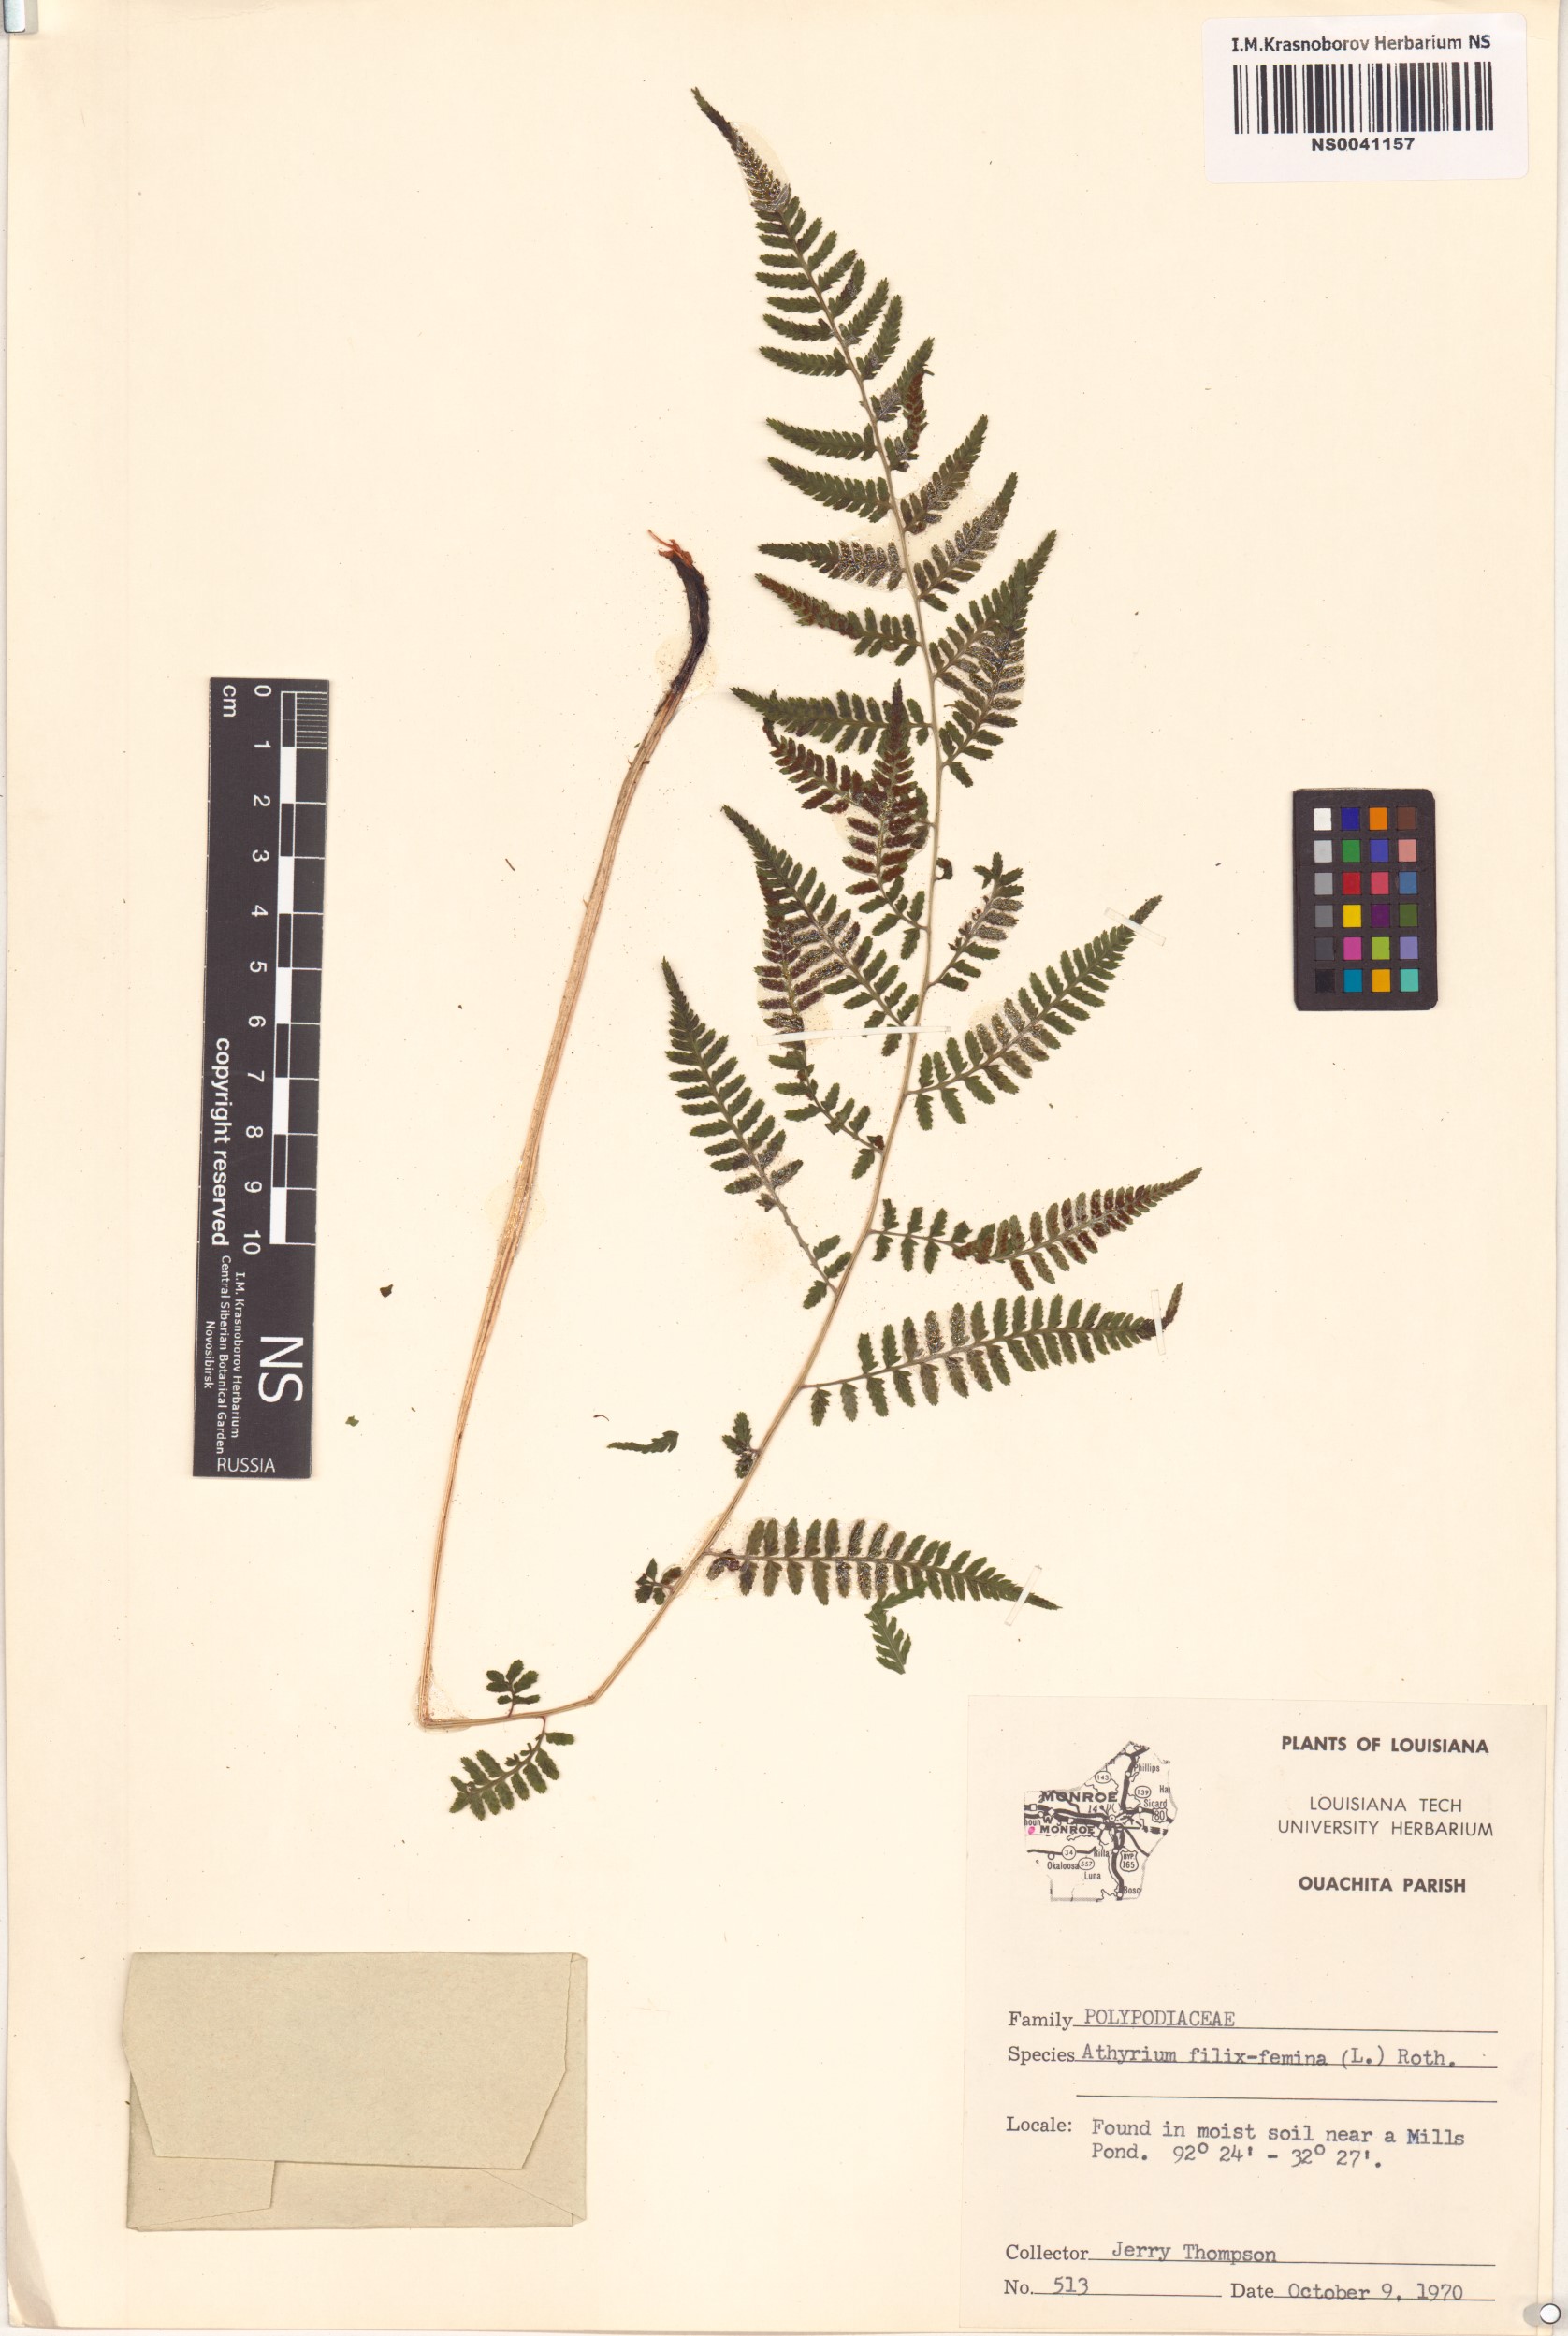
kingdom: Plantae
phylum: Tracheophyta
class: Polypodiopsida
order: Polypodiales
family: Athyriaceae
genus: Athyrium
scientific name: Athyrium filix-femina
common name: Lady fern
